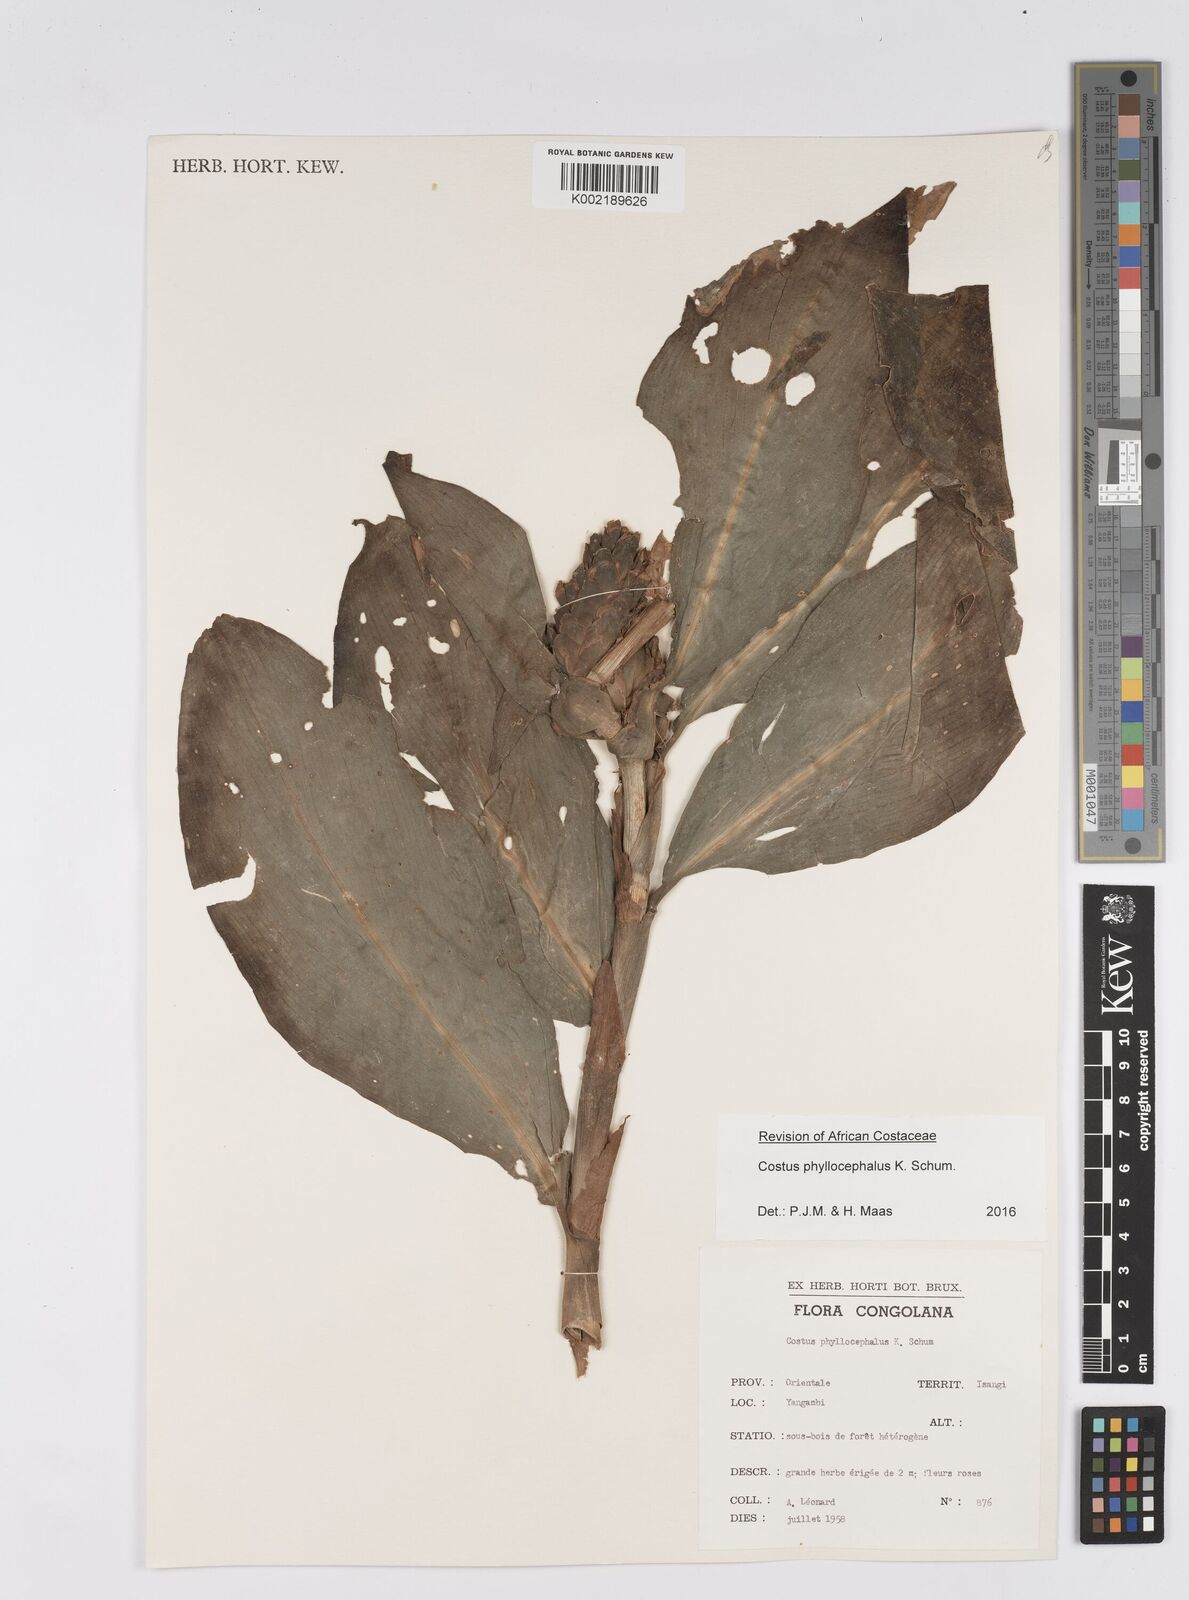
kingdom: Plantae
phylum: Tracheophyta
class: Liliopsida
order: Zingiberales
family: Costaceae
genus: Costus
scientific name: Costus phyllocephalus
